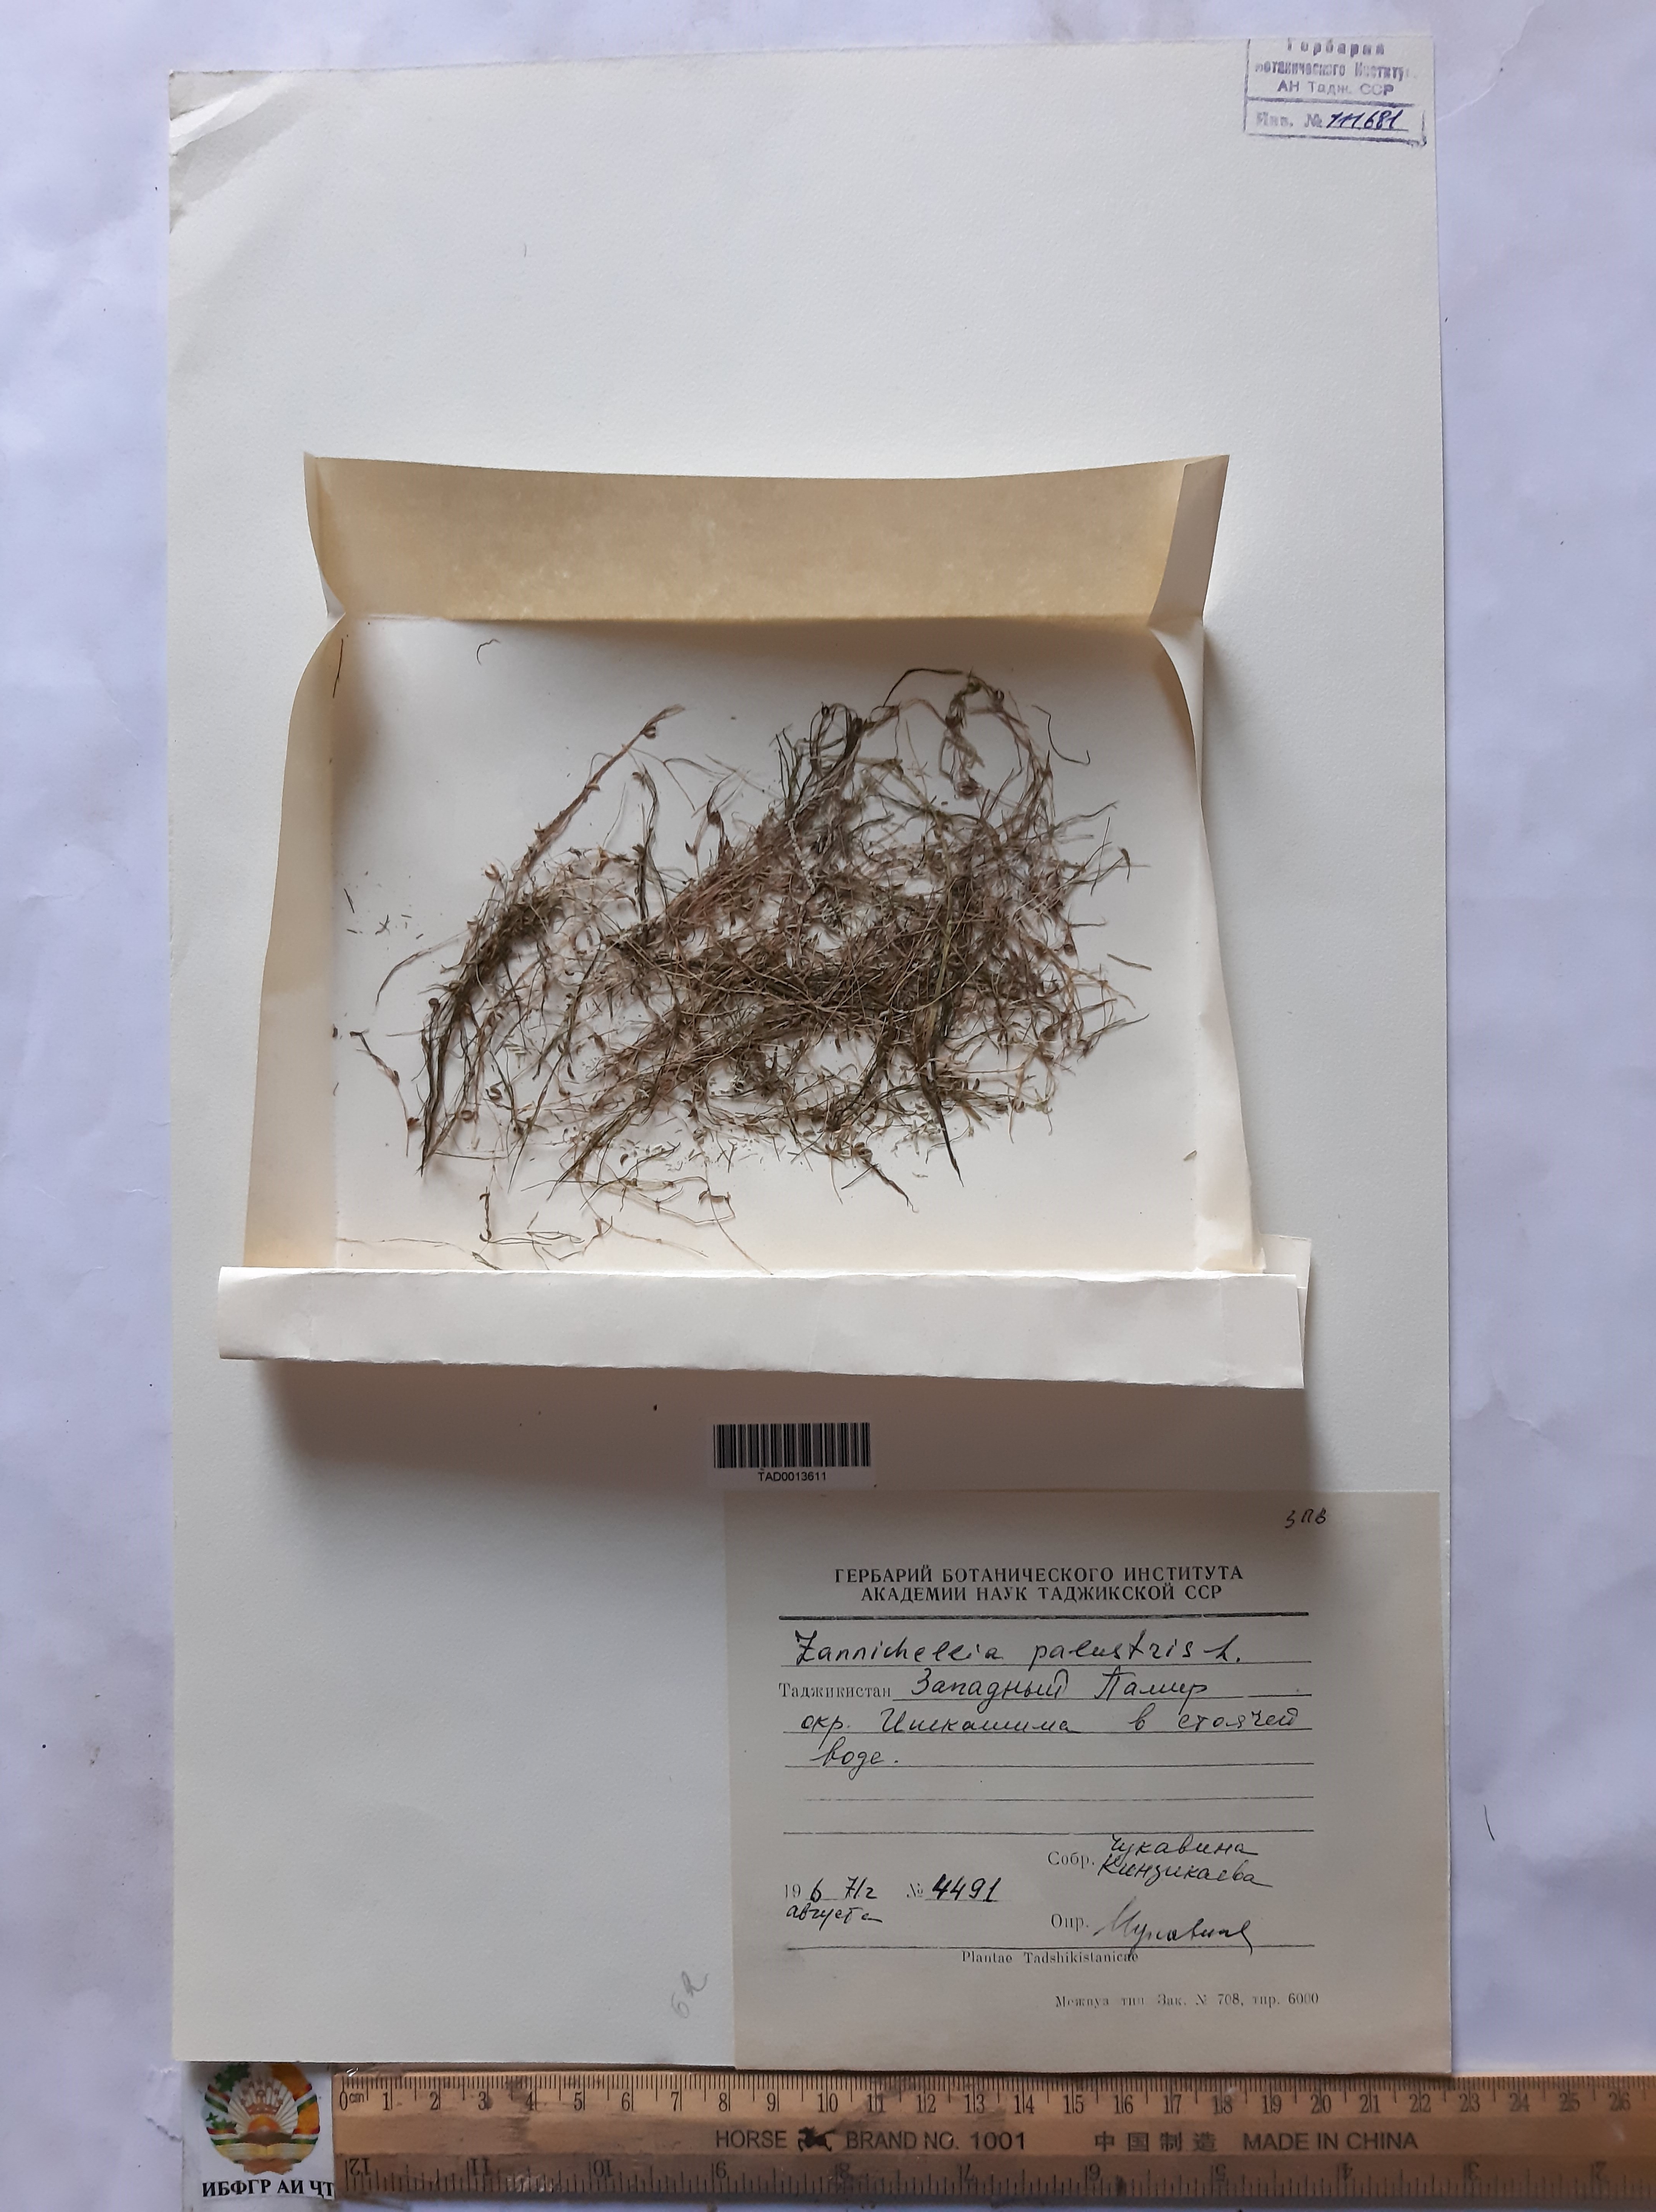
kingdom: Plantae
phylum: Tracheophyta
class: Liliopsida
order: Alismatales
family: Potamogetonaceae
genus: Zannichellia
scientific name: Zannichellia palustris
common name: Horned pondweed
